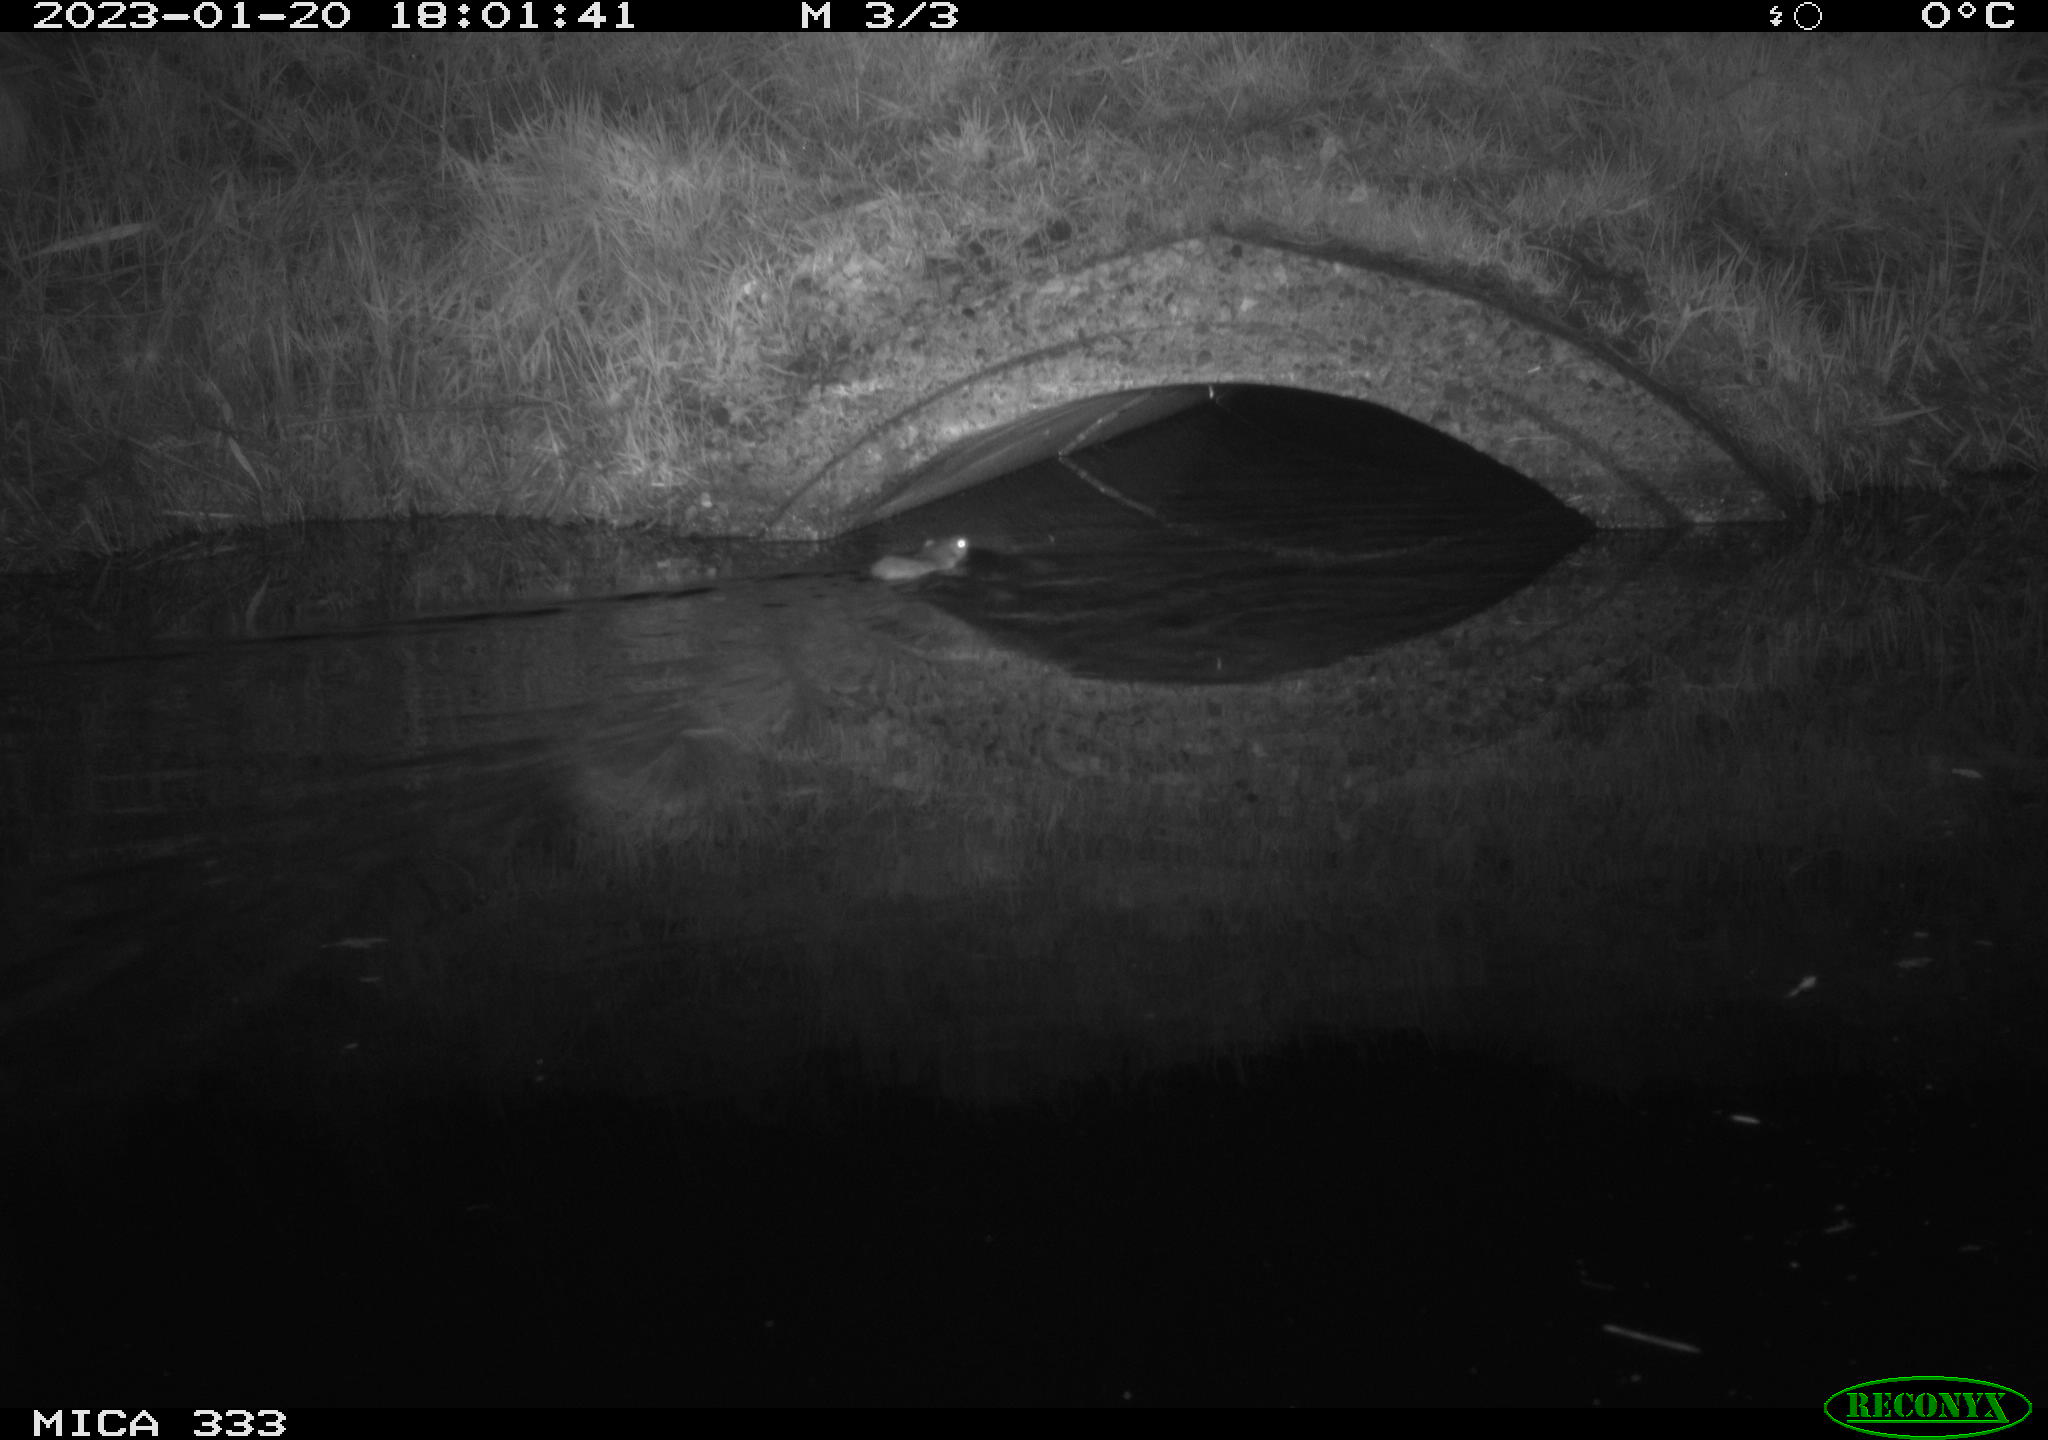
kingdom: Animalia
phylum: Chordata
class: Mammalia
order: Rodentia
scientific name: Rodentia
